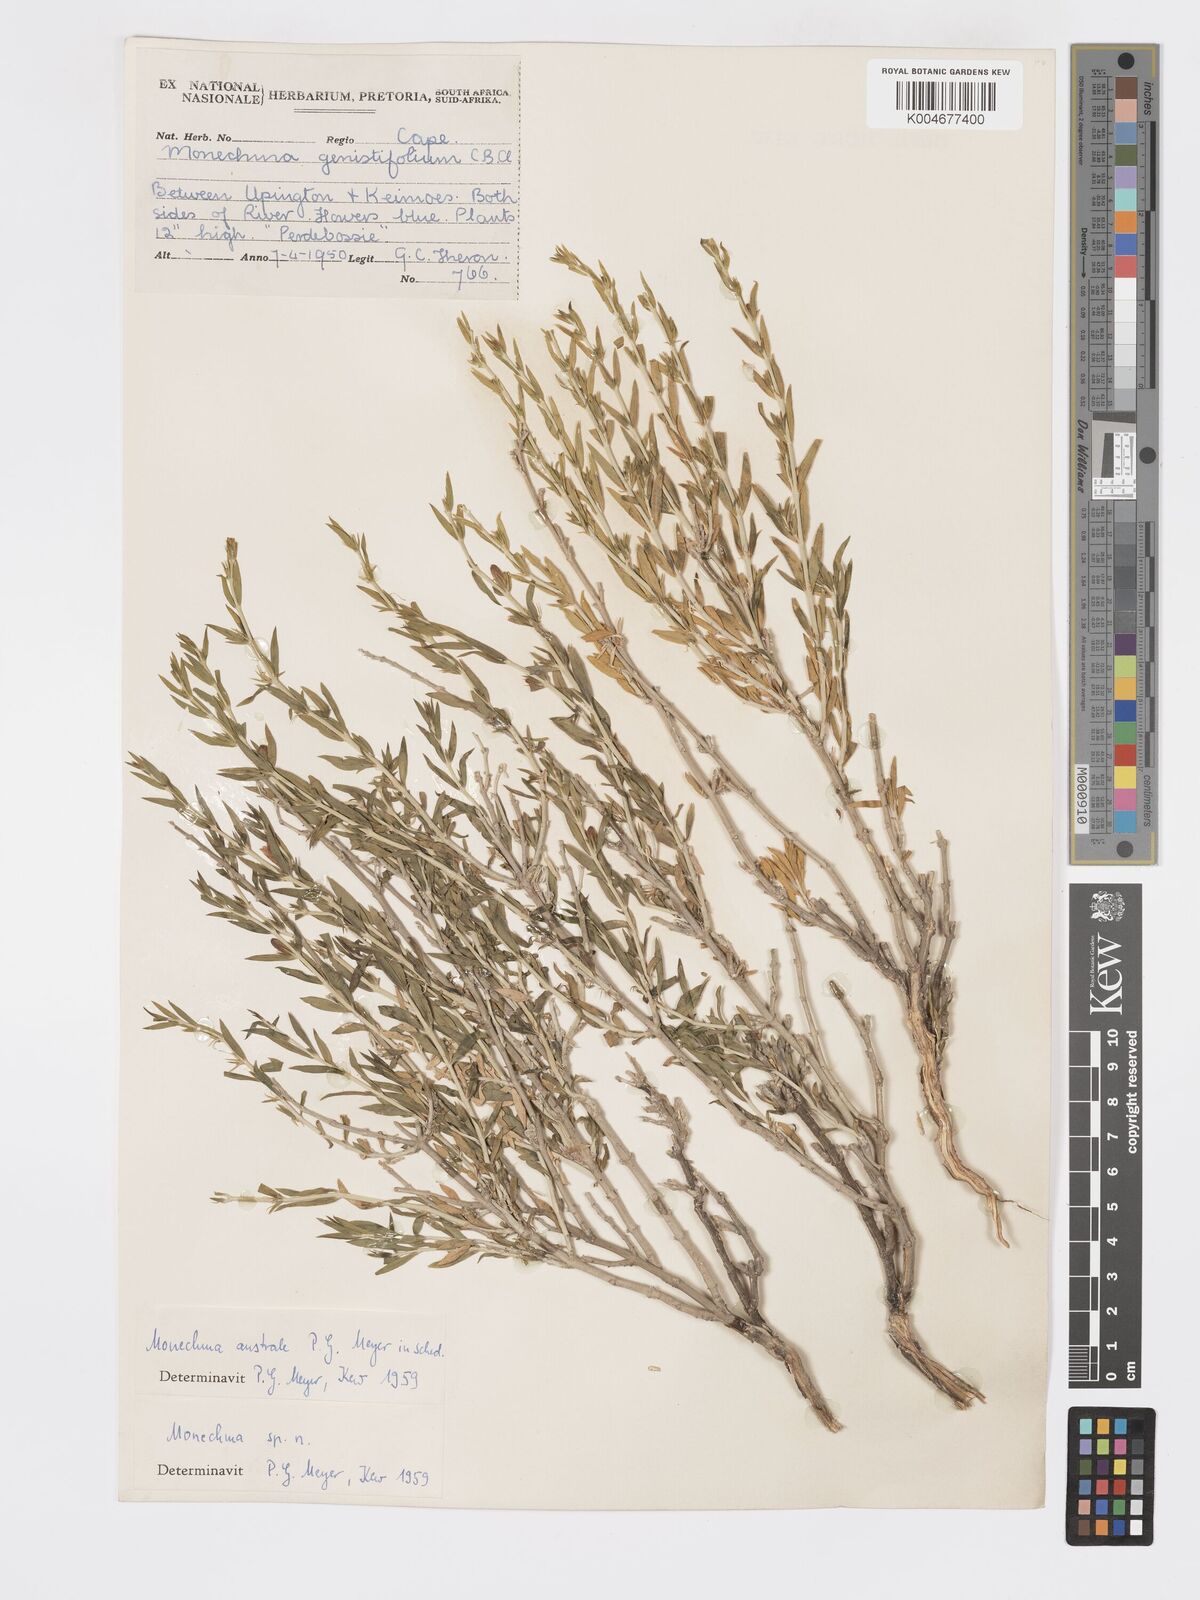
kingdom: Plantae
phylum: Tracheophyta
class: Magnoliopsida
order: Lamiales
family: Acanthaceae
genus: Pogonospermum
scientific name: Pogonospermum
